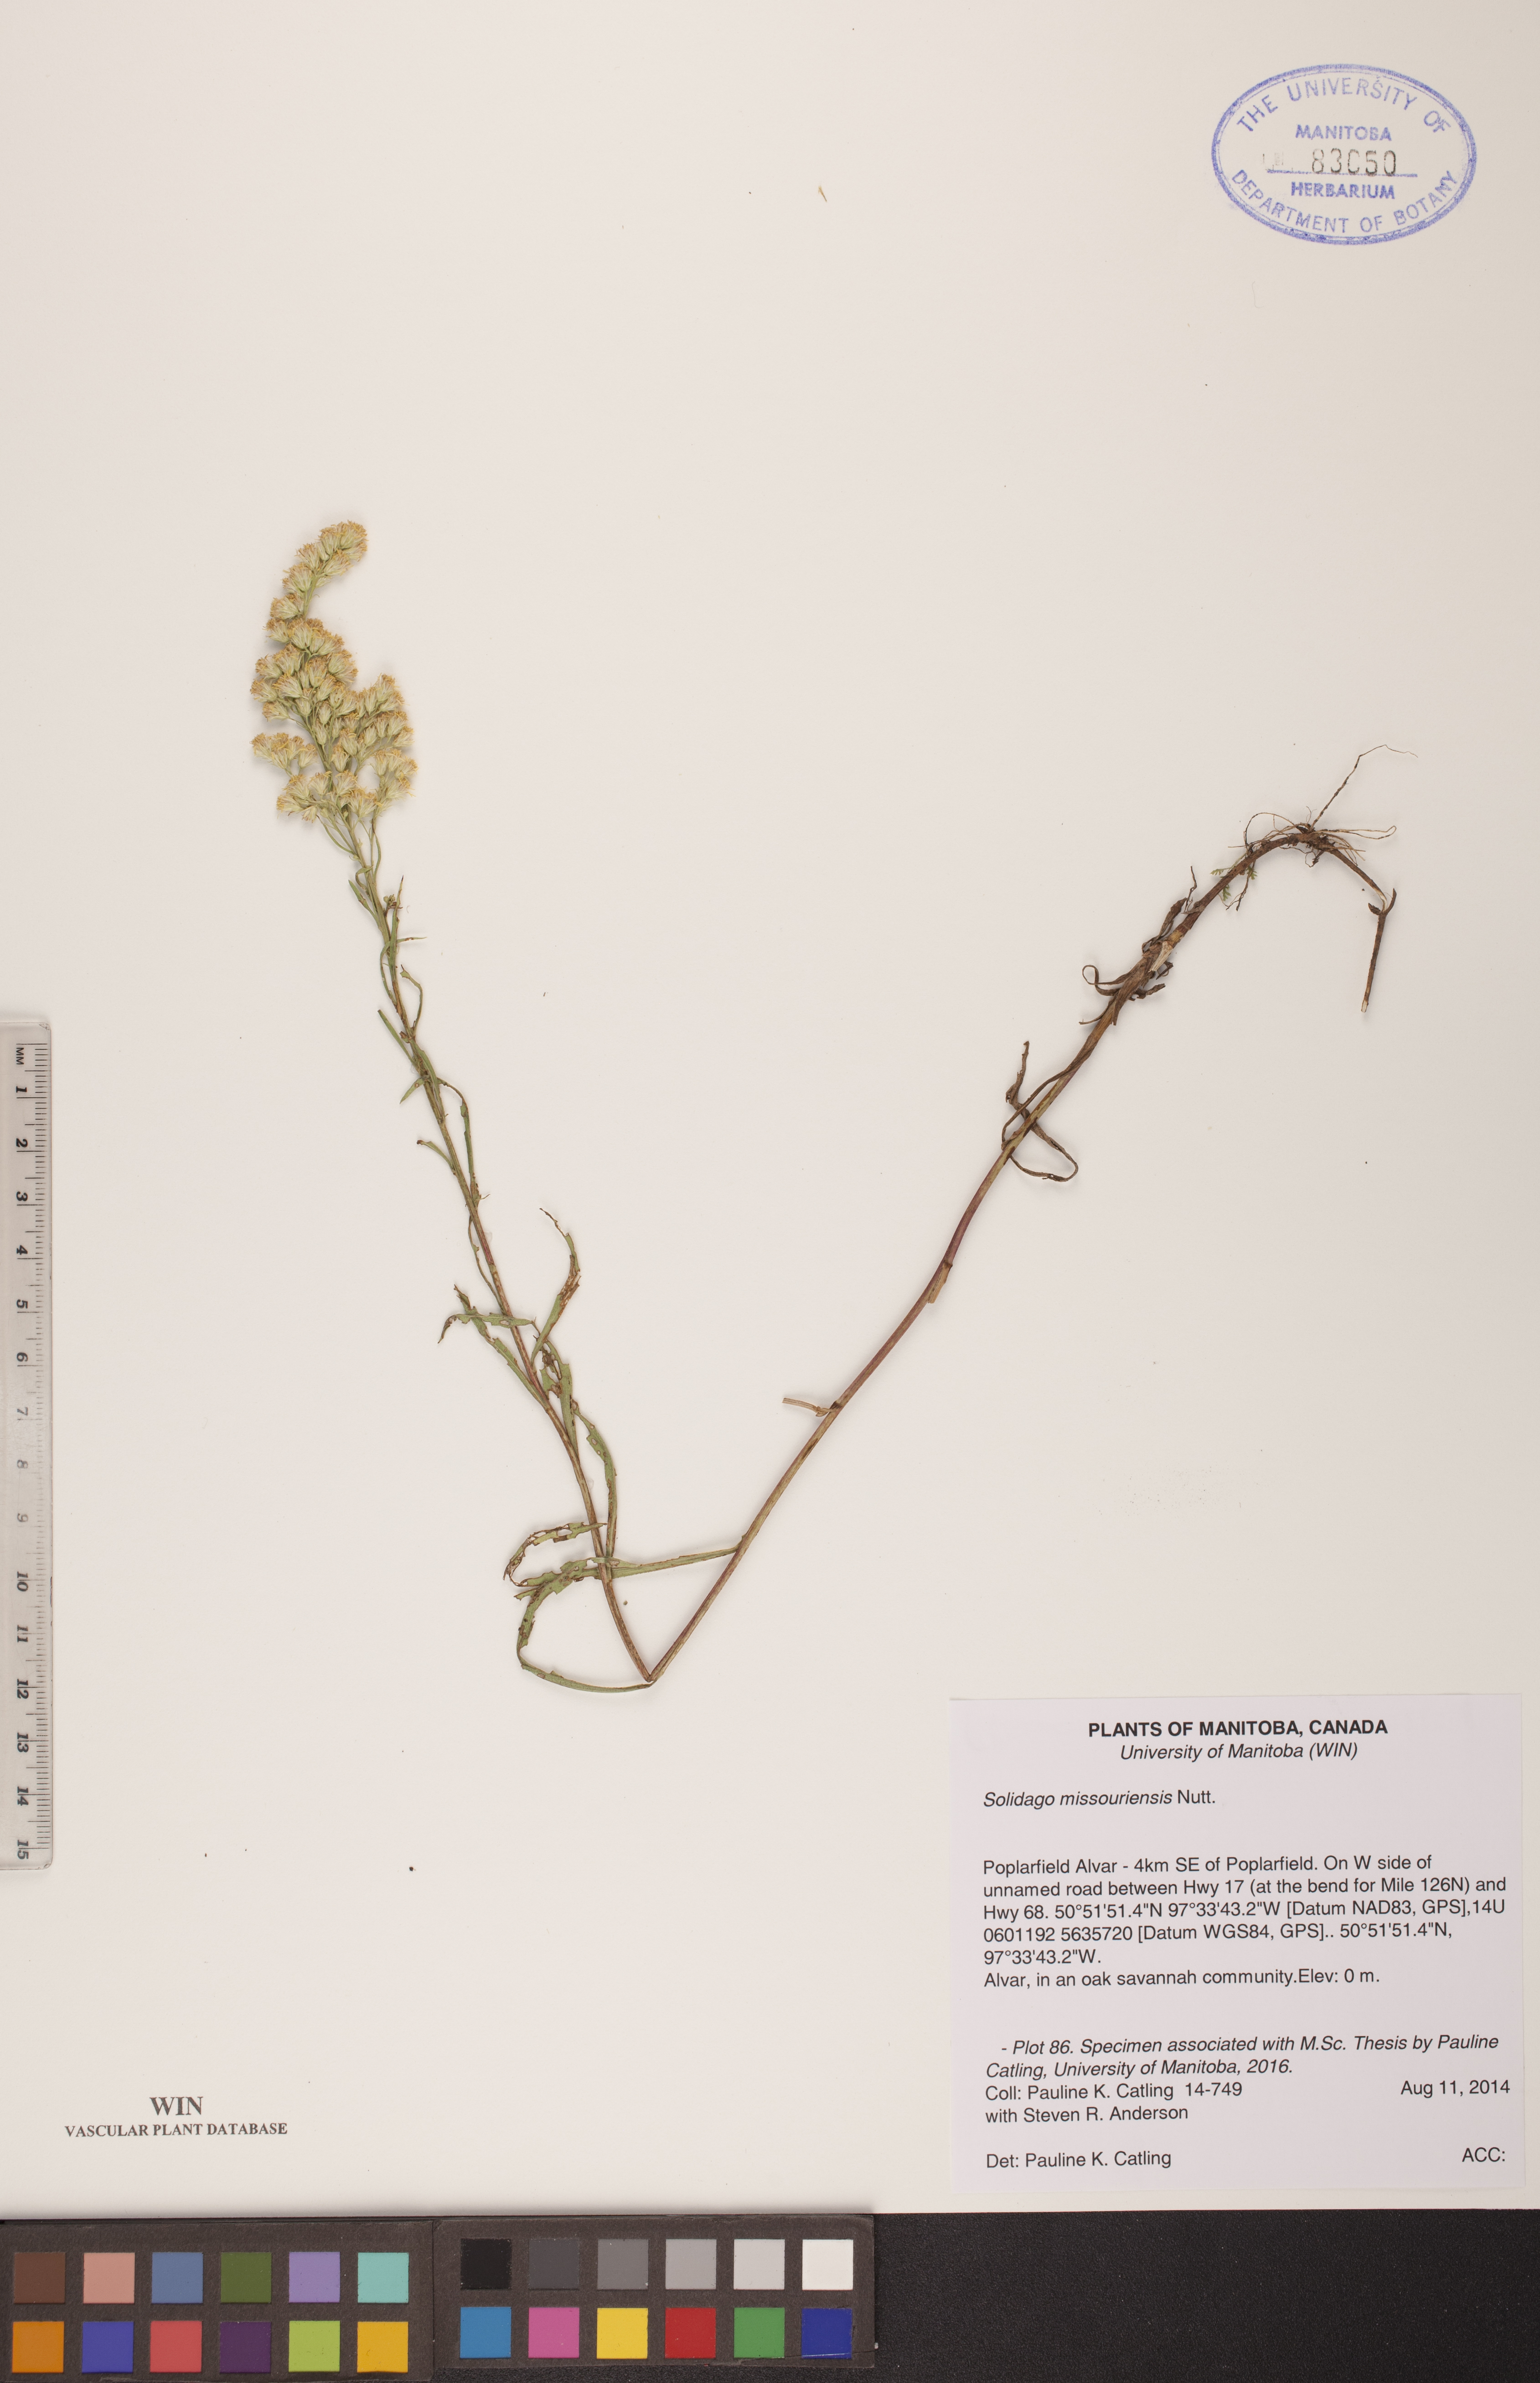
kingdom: Plantae
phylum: Tracheophyta
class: Magnoliopsida
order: Asterales
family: Asteraceae
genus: Solidago
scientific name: Solidago missouriensis
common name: Prairie goldenrod
